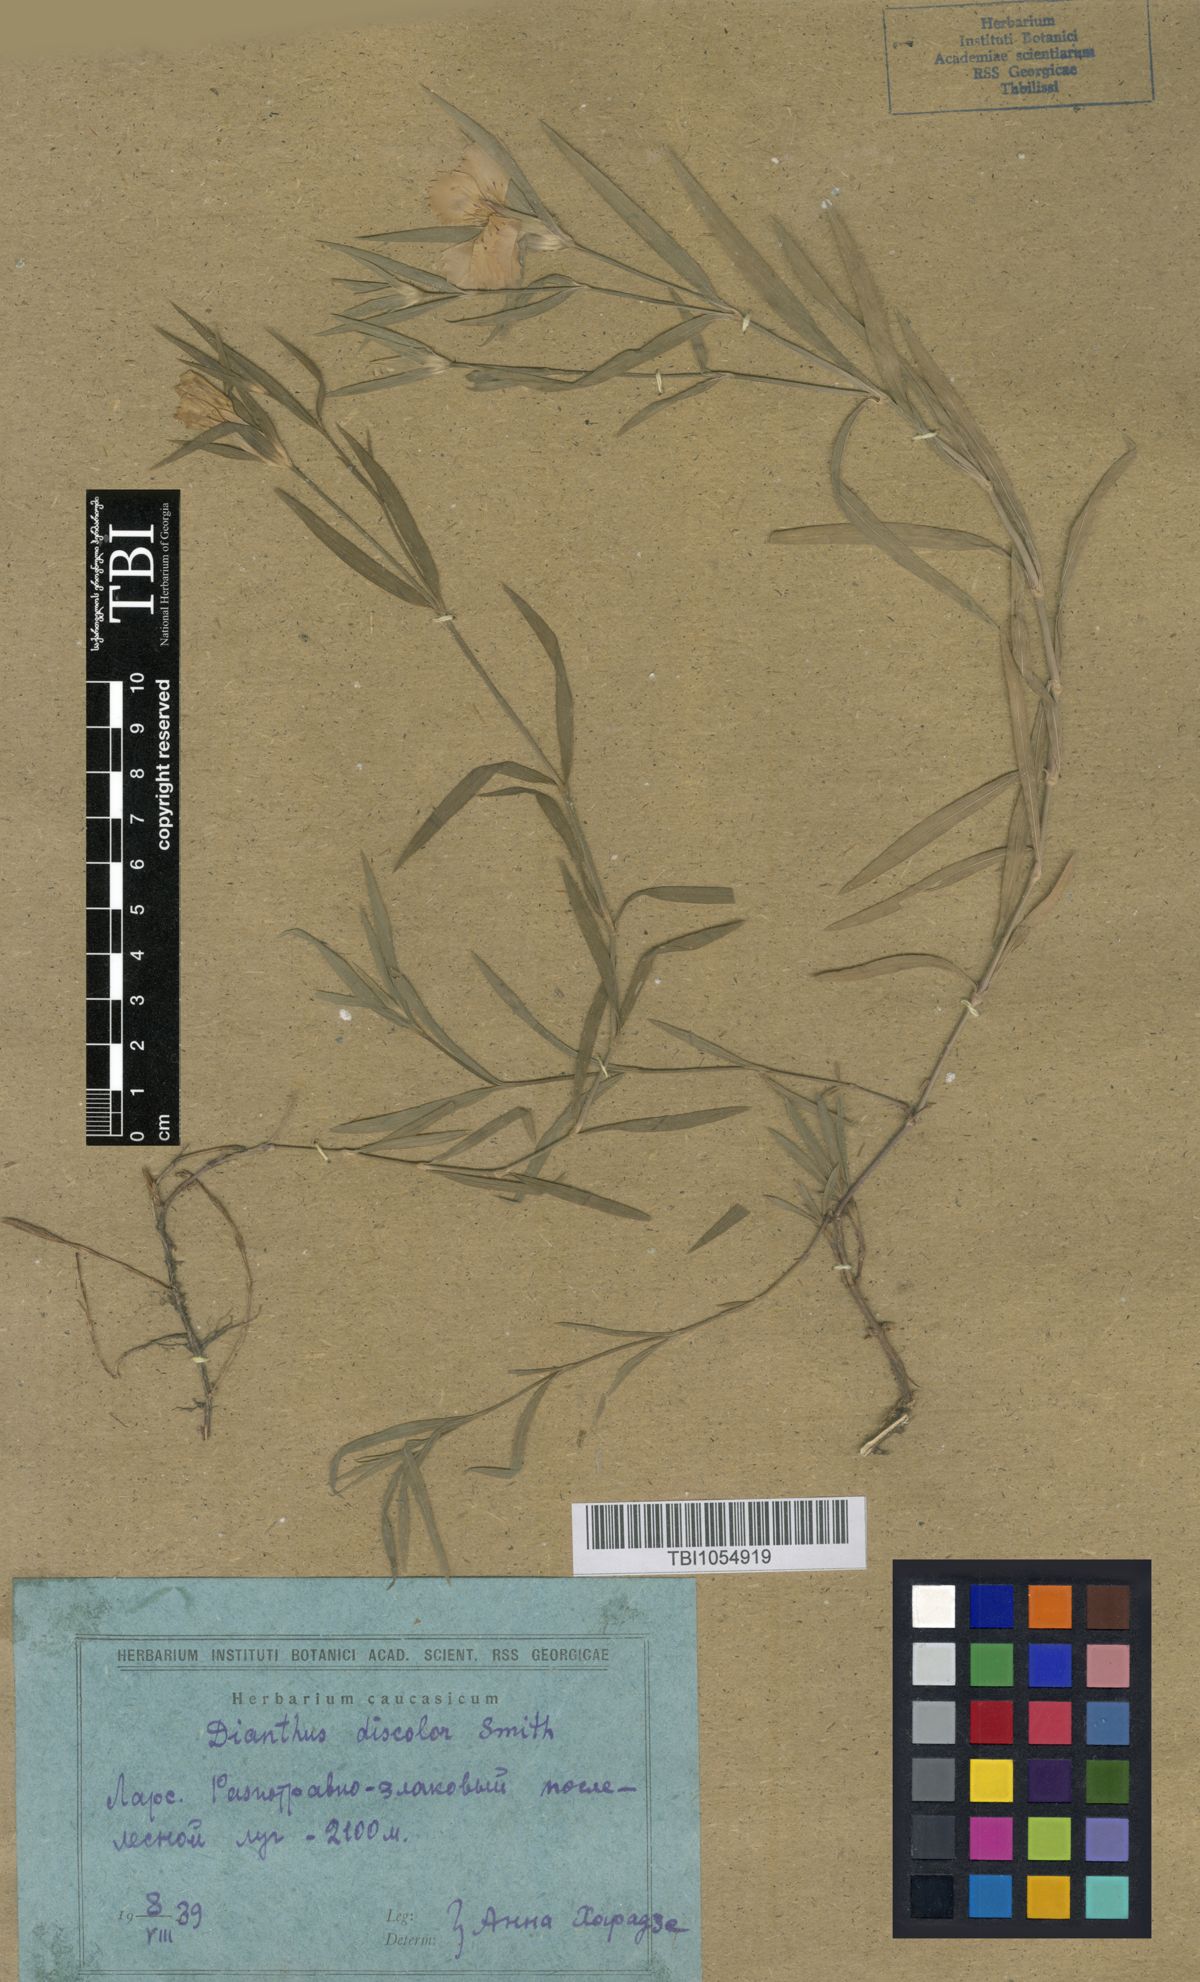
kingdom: Plantae
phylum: Tracheophyta
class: Magnoliopsida
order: Caryophyllales
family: Caryophyllaceae
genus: Dianthus
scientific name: Dianthus caucaseus
